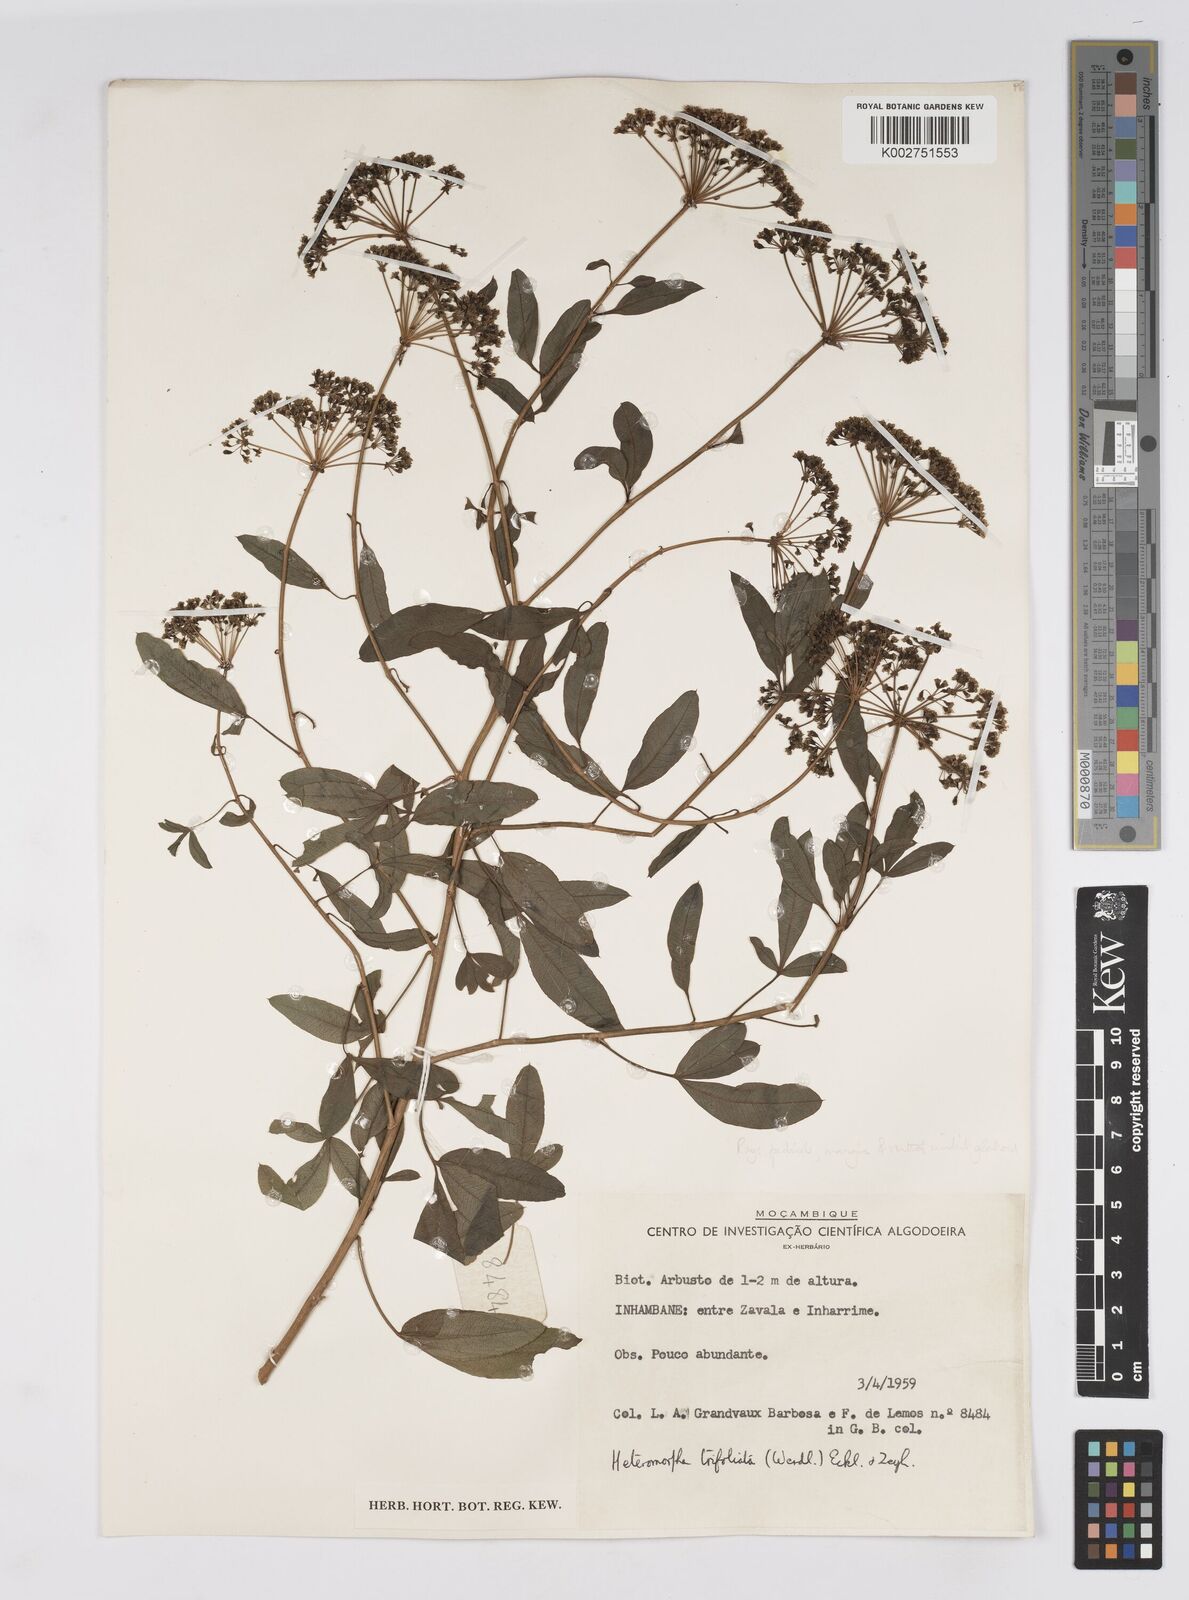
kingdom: Plantae
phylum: Tracheophyta
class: Magnoliopsida
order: Apiales
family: Apiaceae
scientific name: Apiaceae
